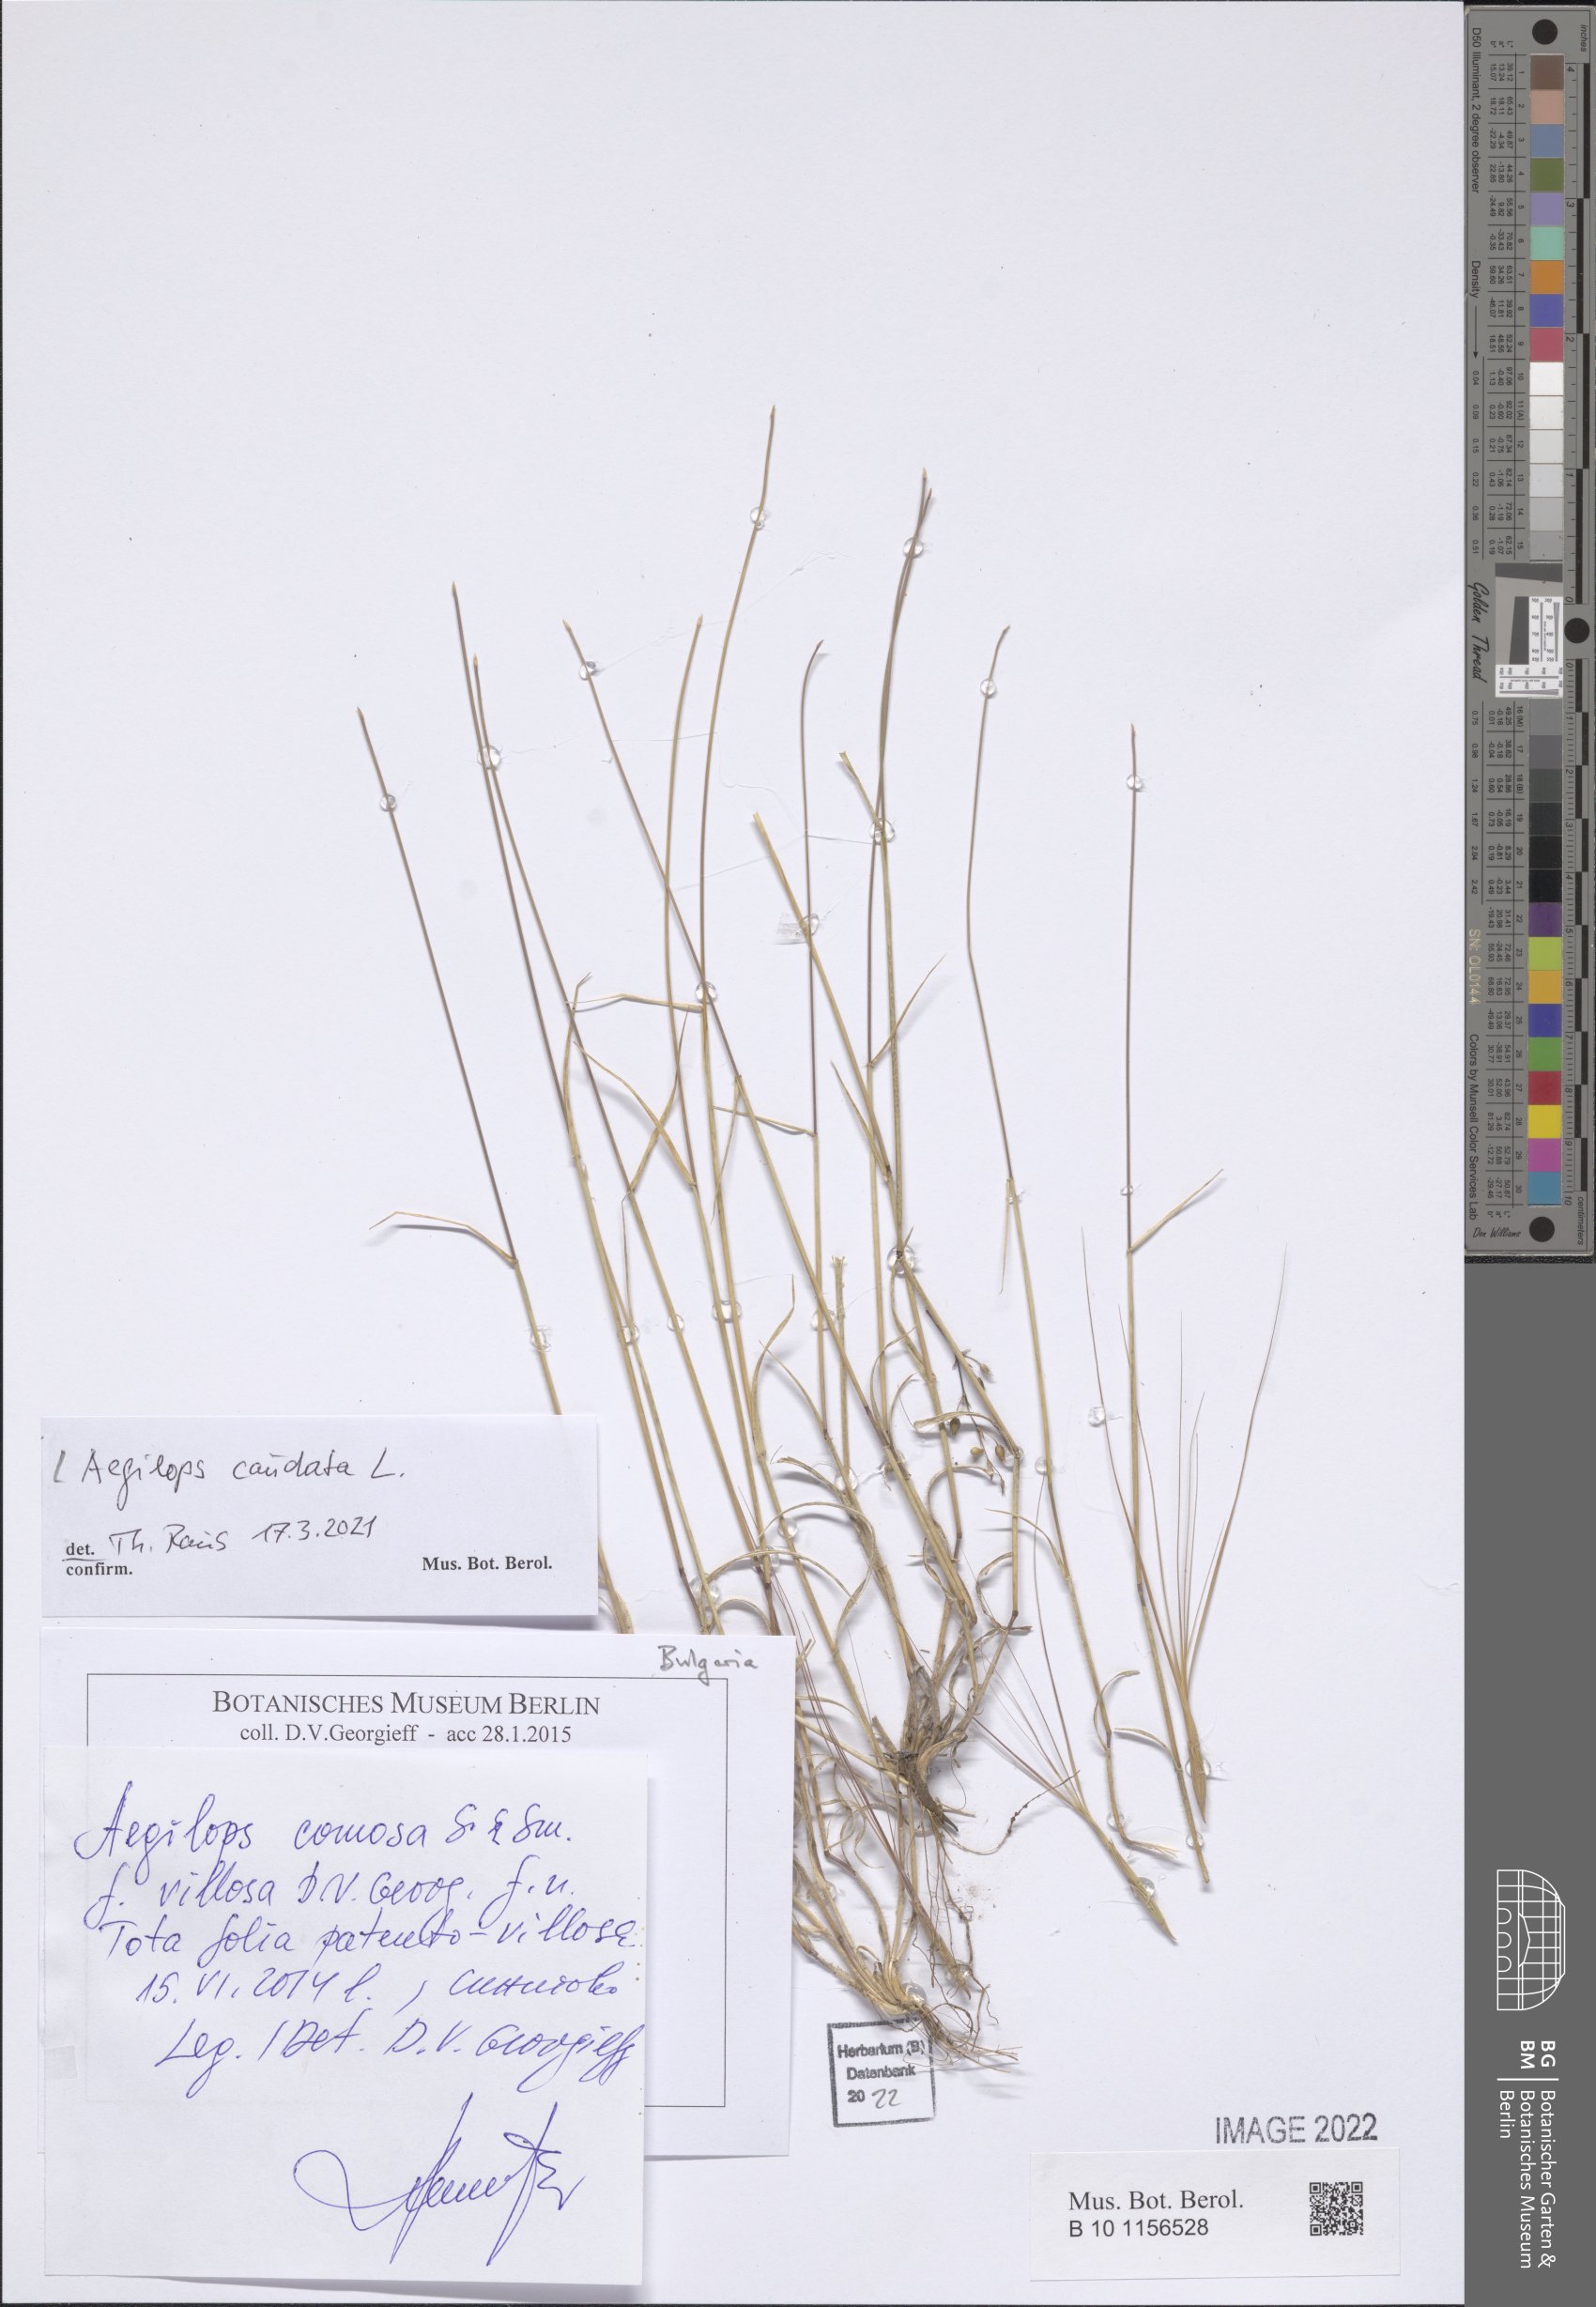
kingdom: Plantae
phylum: Tracheophyta
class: Liliopsida
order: Poales
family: Poaceae
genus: Aegilops
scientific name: Aegilops caudata
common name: Cretan hard-grass
